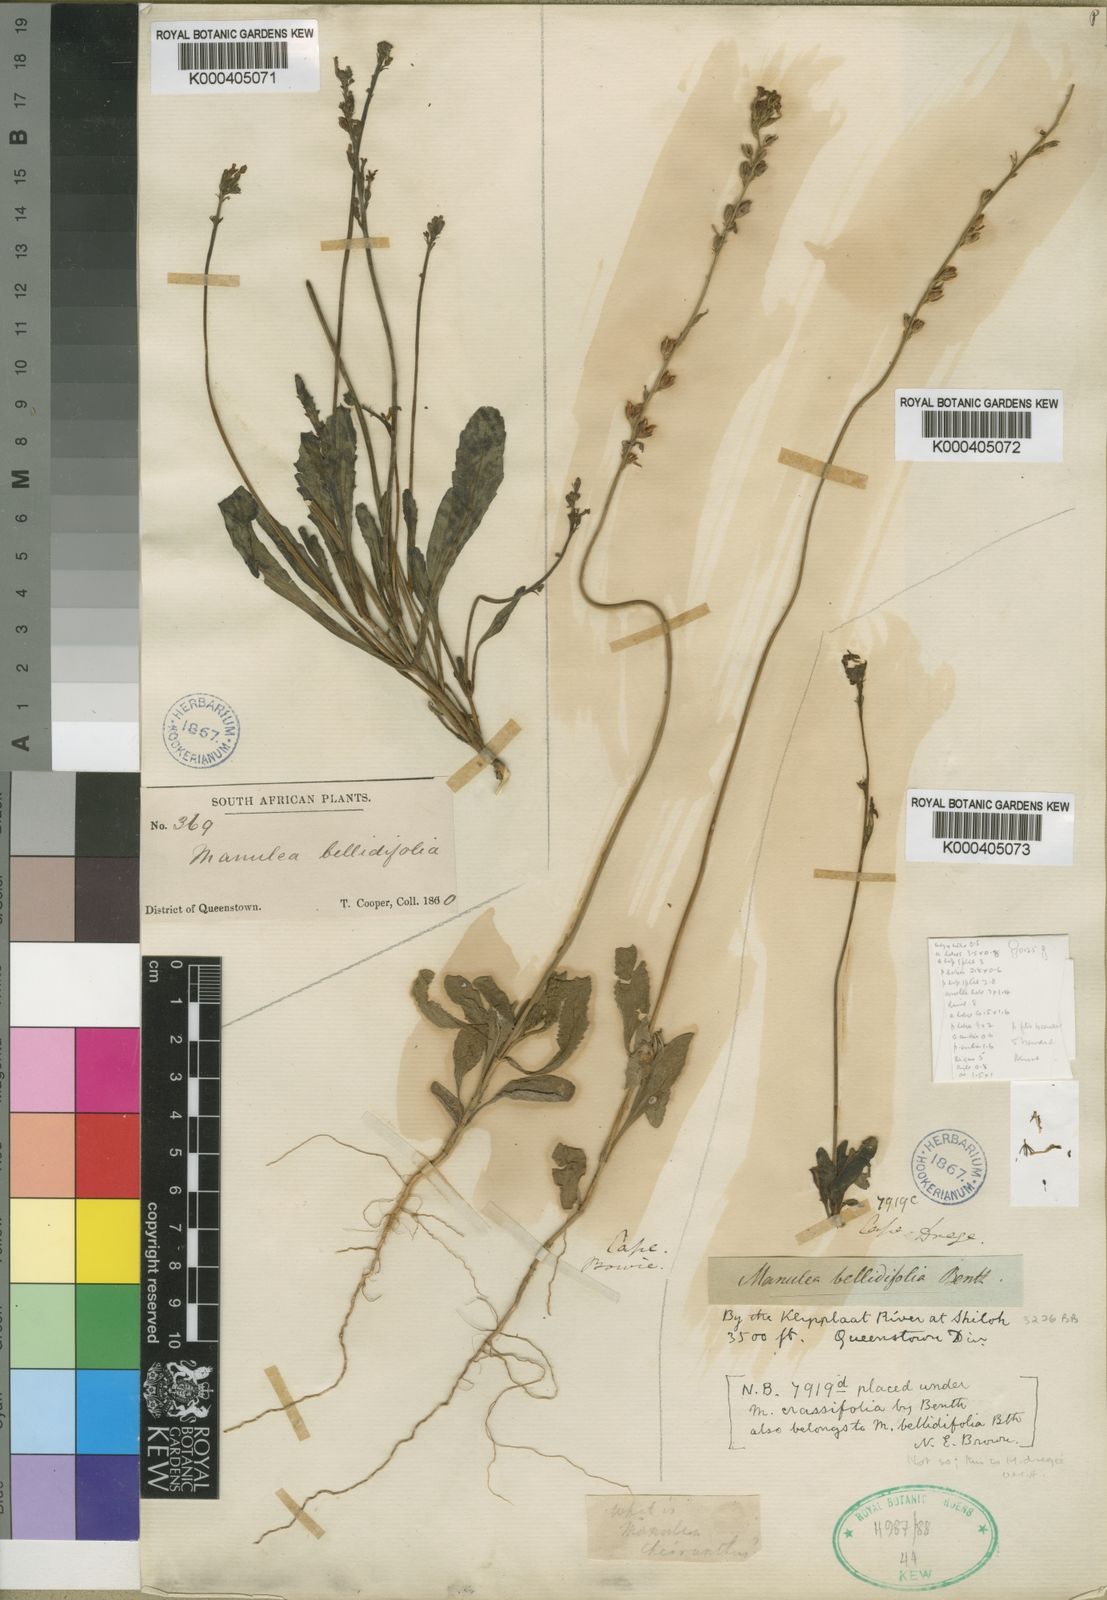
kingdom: Plantae
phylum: Tracheophyta
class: Magnoliopsida
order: Lamiales
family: Scrophulariaceae
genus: Manulea
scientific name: Manulea bellidifolia
